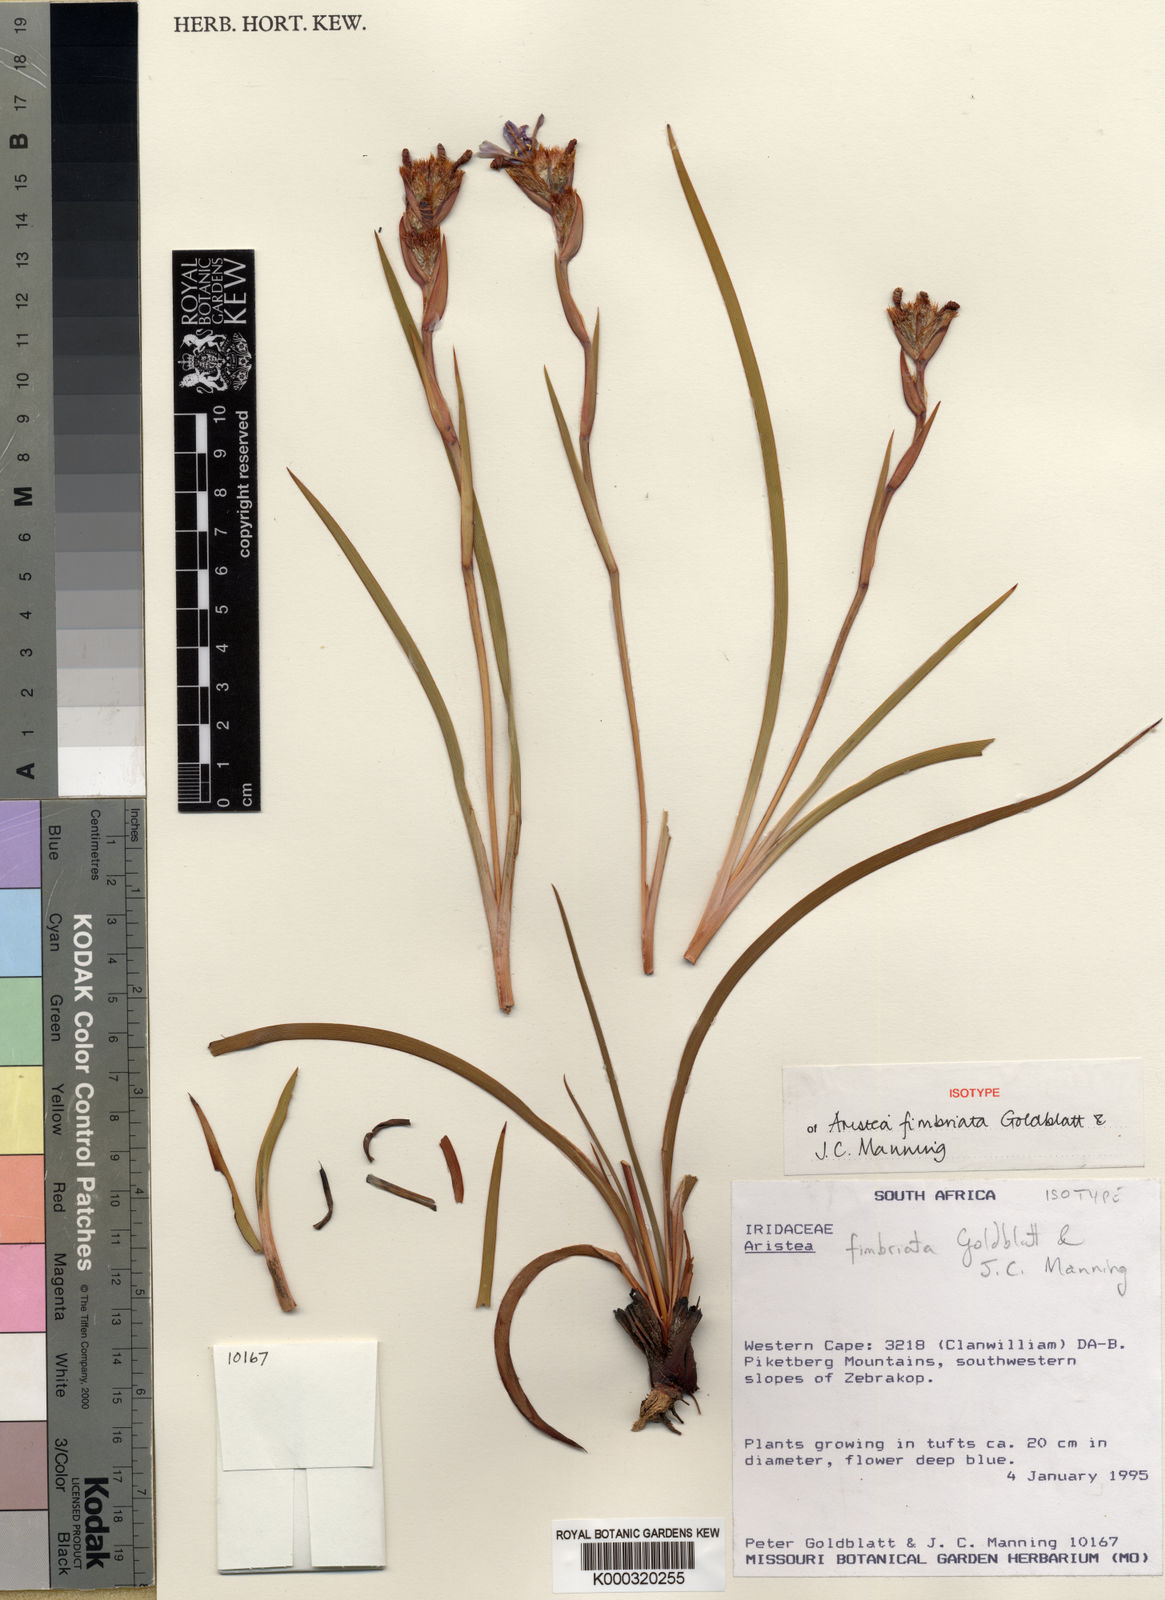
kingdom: Plantae
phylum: Tracheophyta
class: Liliopsida
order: Asparagales
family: Iridaceae
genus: Aristea
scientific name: Aristea fimbriata
